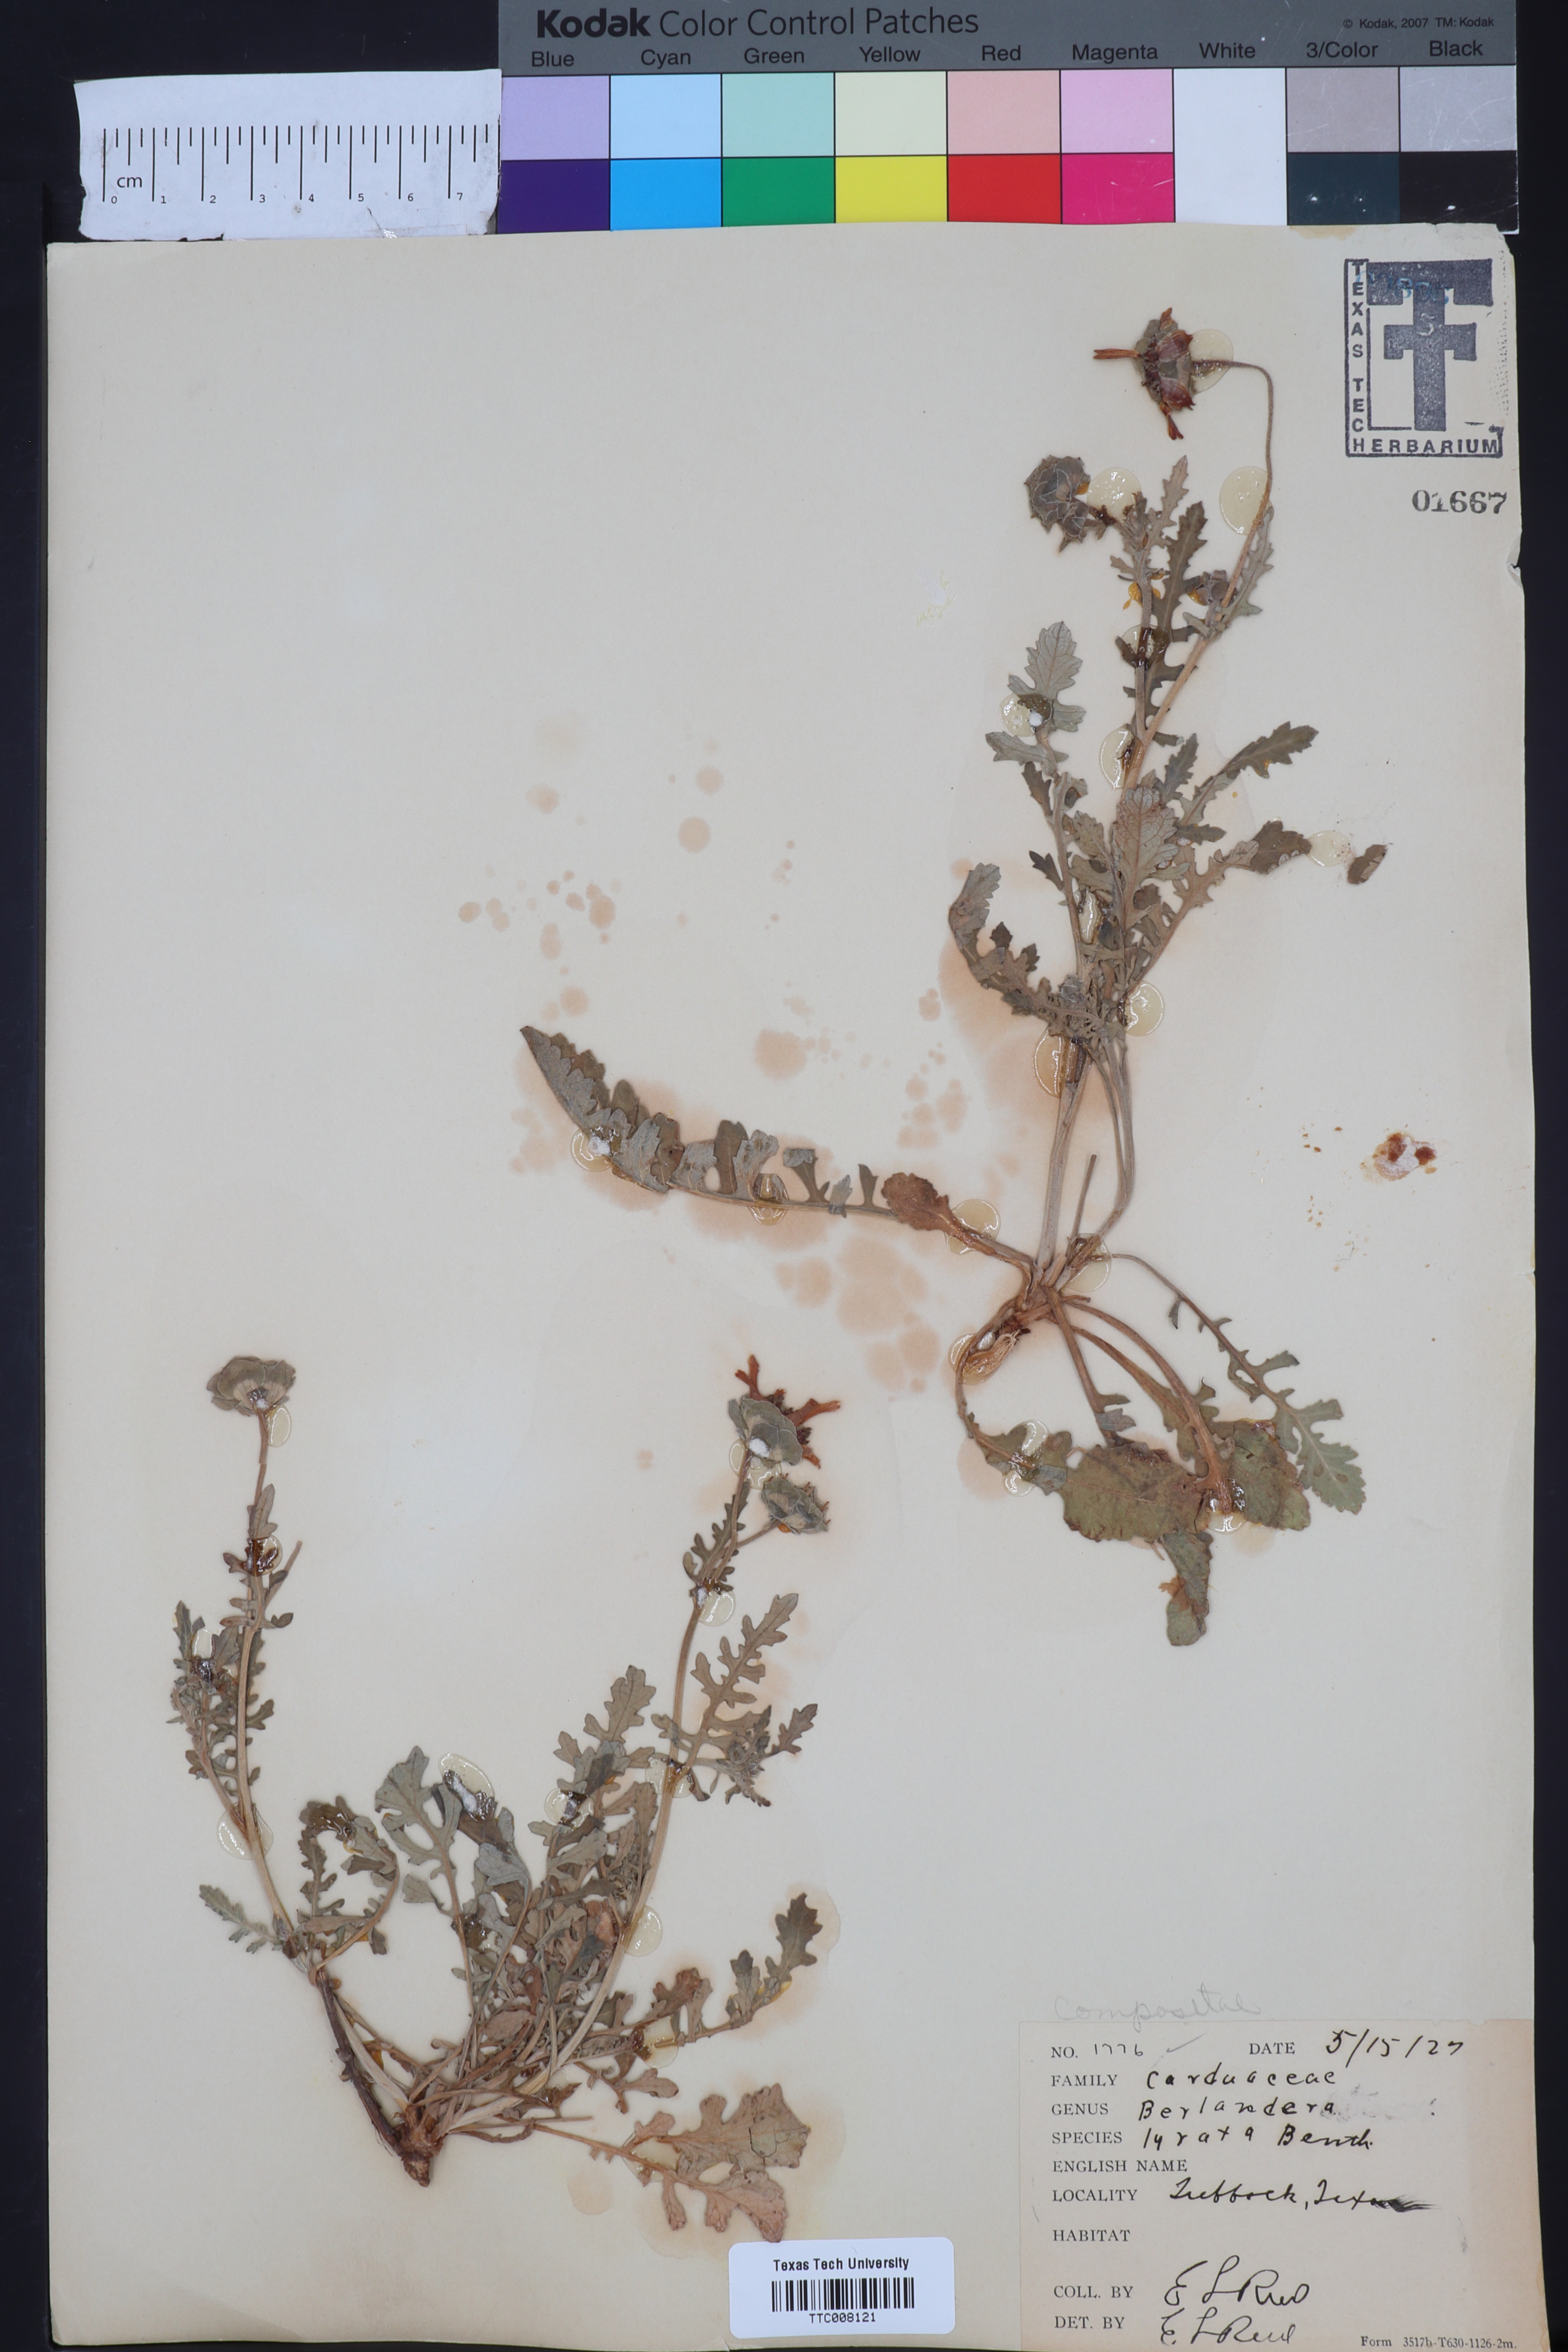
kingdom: Plantae
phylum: Tracheophyta
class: Magnoliopsida
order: Asterales
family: Asteraceae
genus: Berlandiera
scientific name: Berlandiera lyrata
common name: Chocolate-flower
